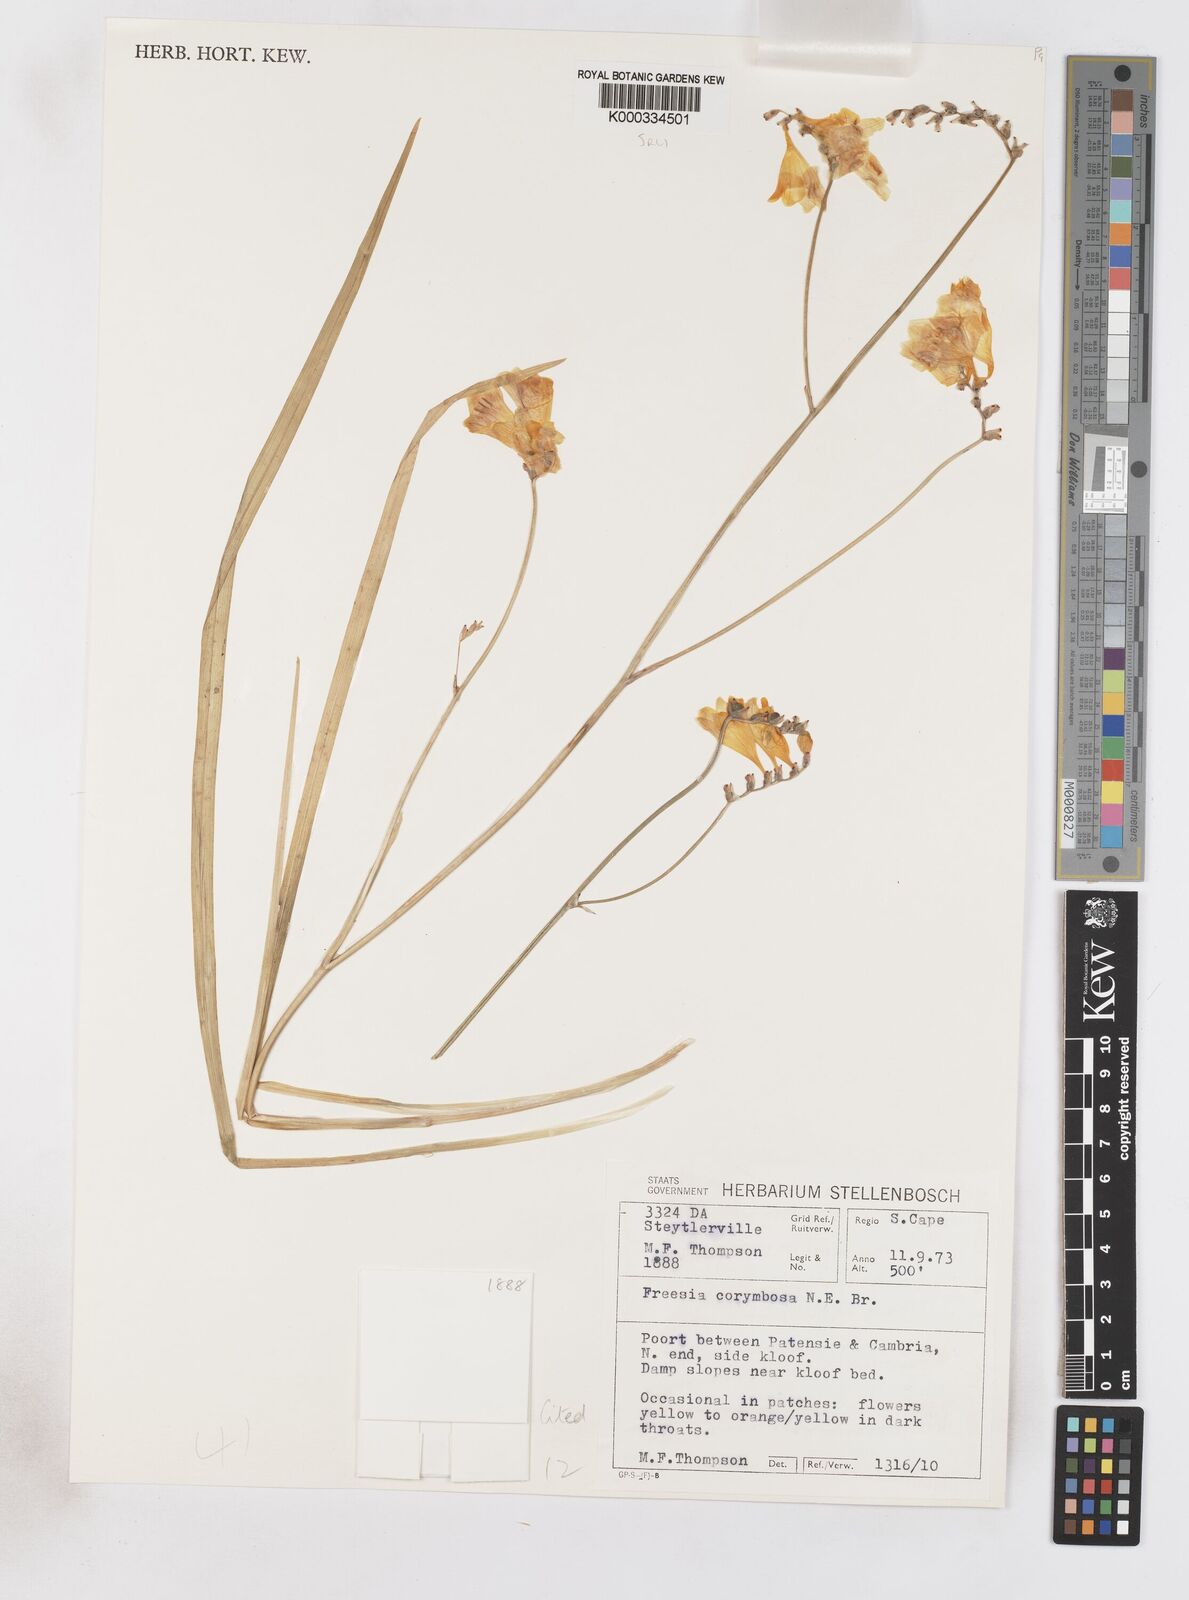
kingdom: Plantae
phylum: Tracheophyta
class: Liliopsida
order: Asparagales
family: Iridaceae
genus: Freesia
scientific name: Freesia corymbosa
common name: Common freesia
